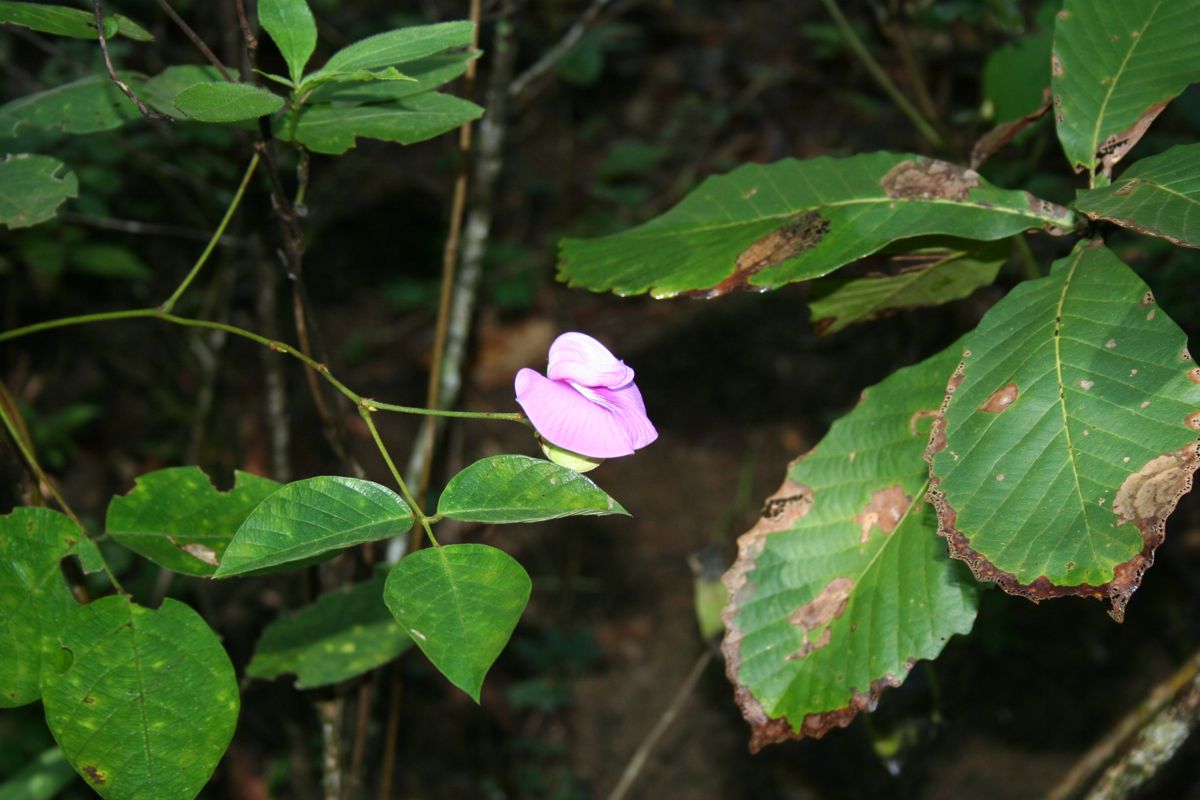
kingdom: Plantae
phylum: Tracheophyta
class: Magnoliopsida
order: Fabales
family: Fabaceae
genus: Centrosema
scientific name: Centrosema pubescens
